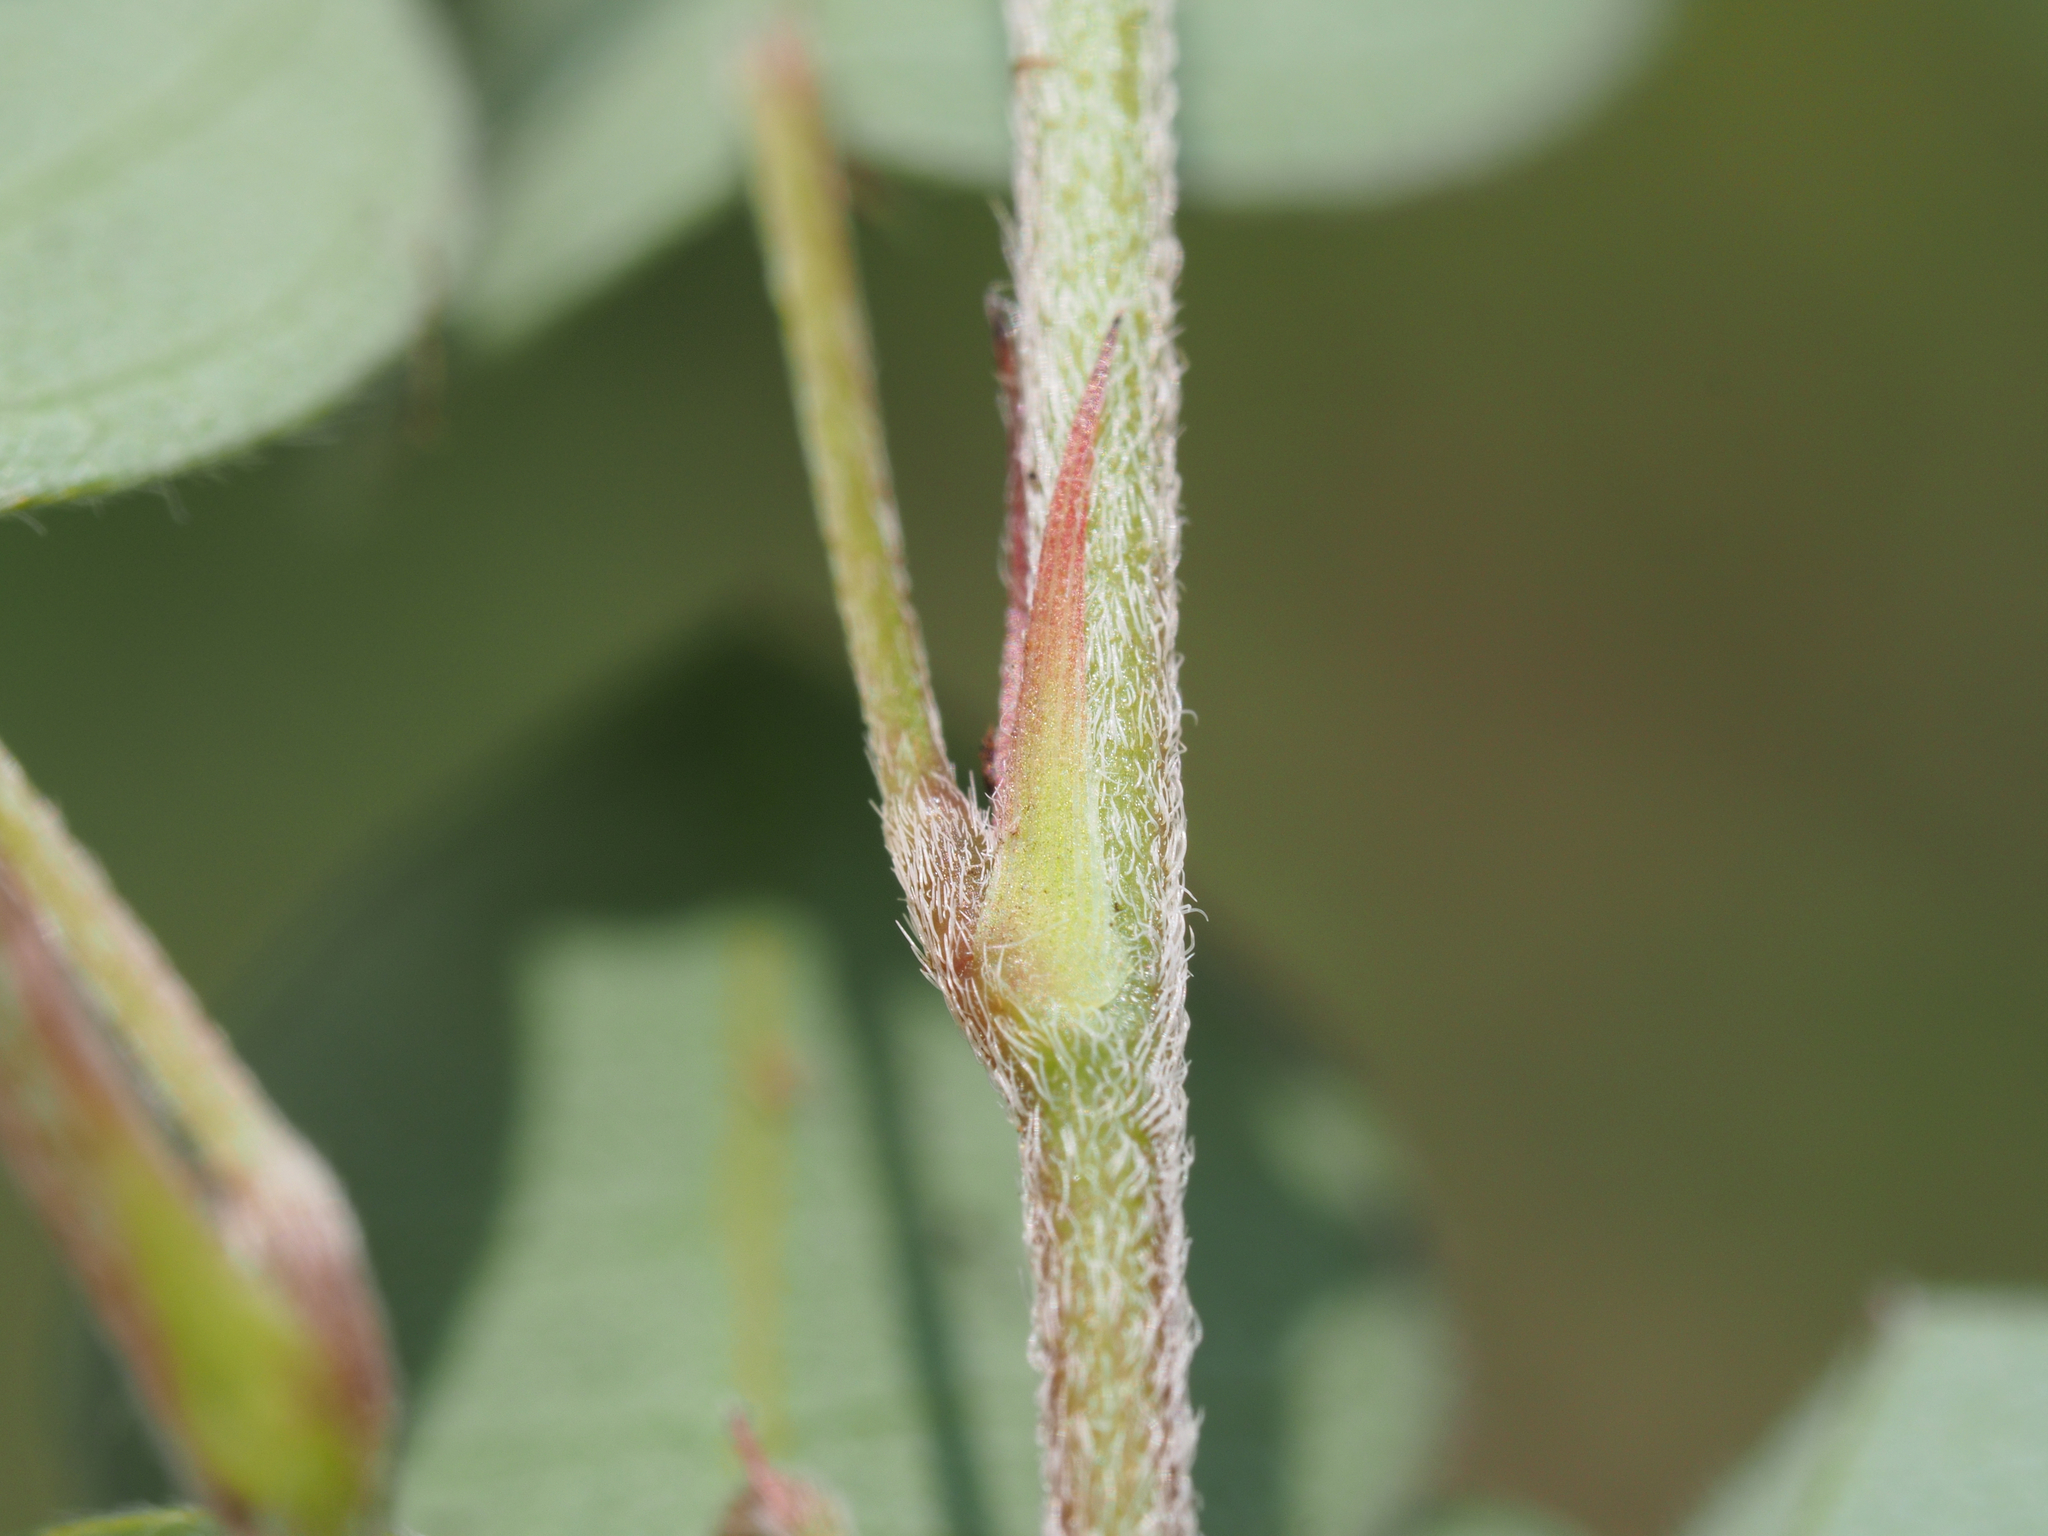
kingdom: Plantae
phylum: Tracheophyta
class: Magnoliopsida
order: Fabales
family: Fabaceae
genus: Grona
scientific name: Grona heterocarpos
